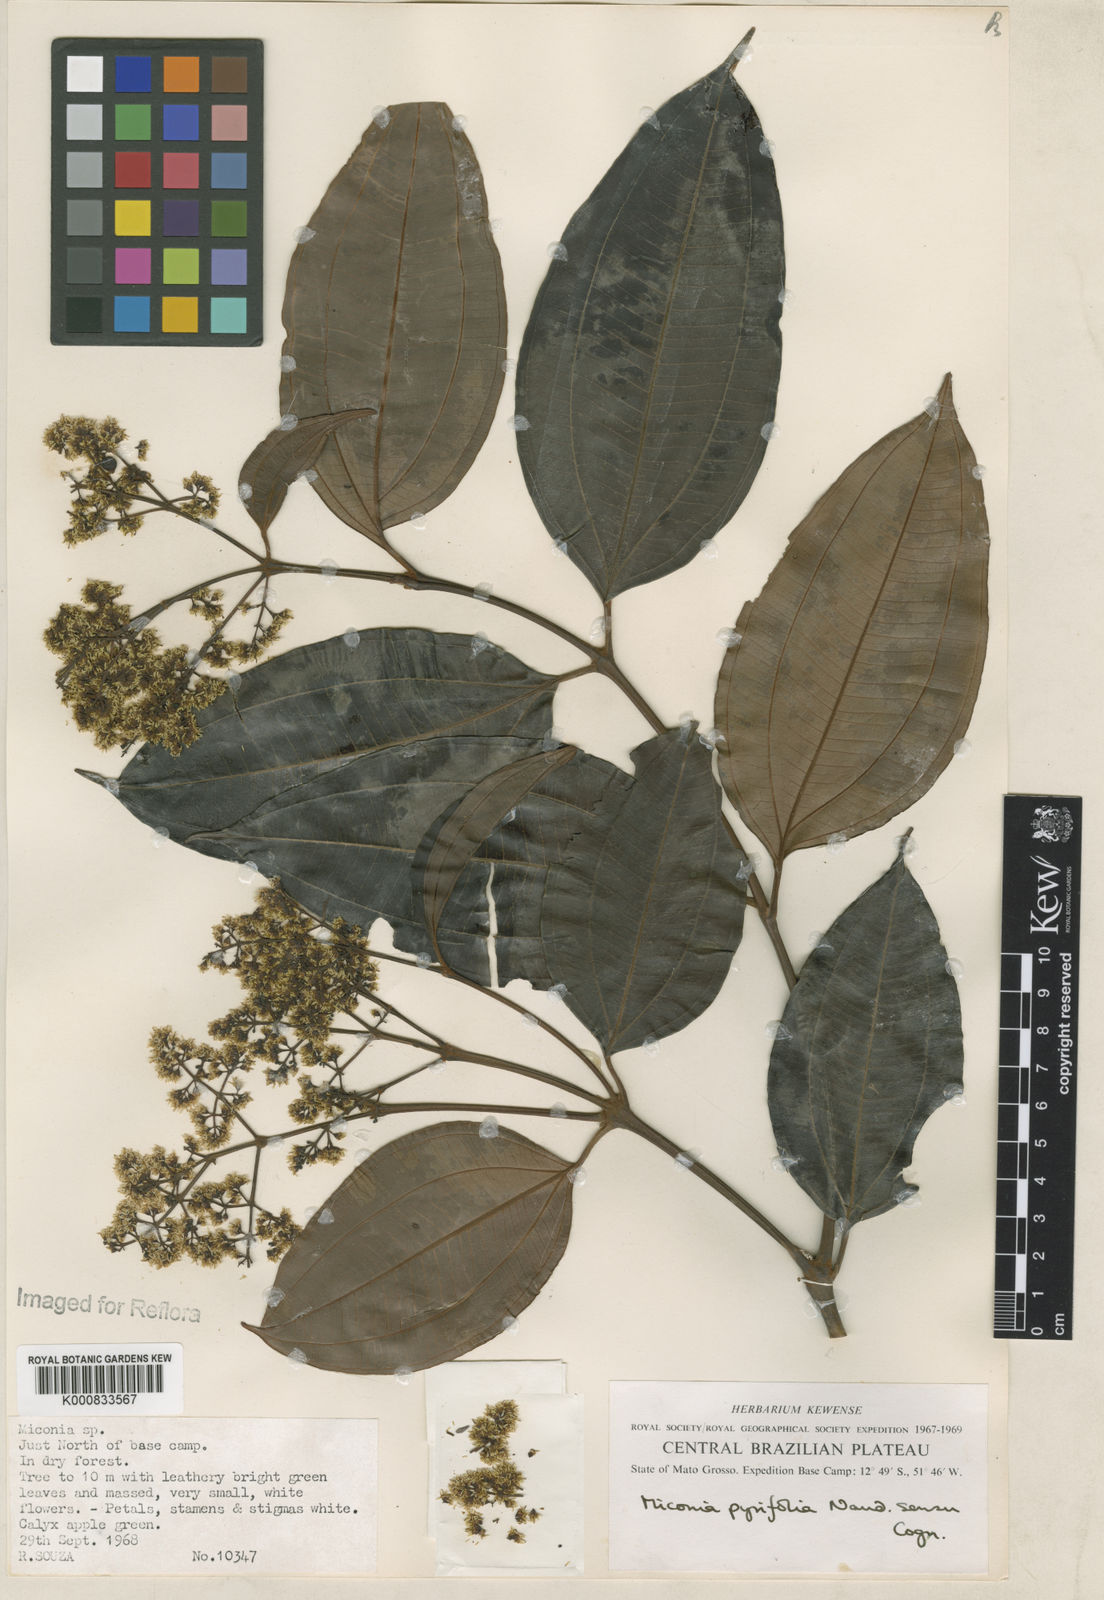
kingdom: Plantae
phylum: Tracheophyta
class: Magnoliopsida
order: Myrtales
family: Melastomataceae
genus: Miconia
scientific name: Miconia pyrifolia
